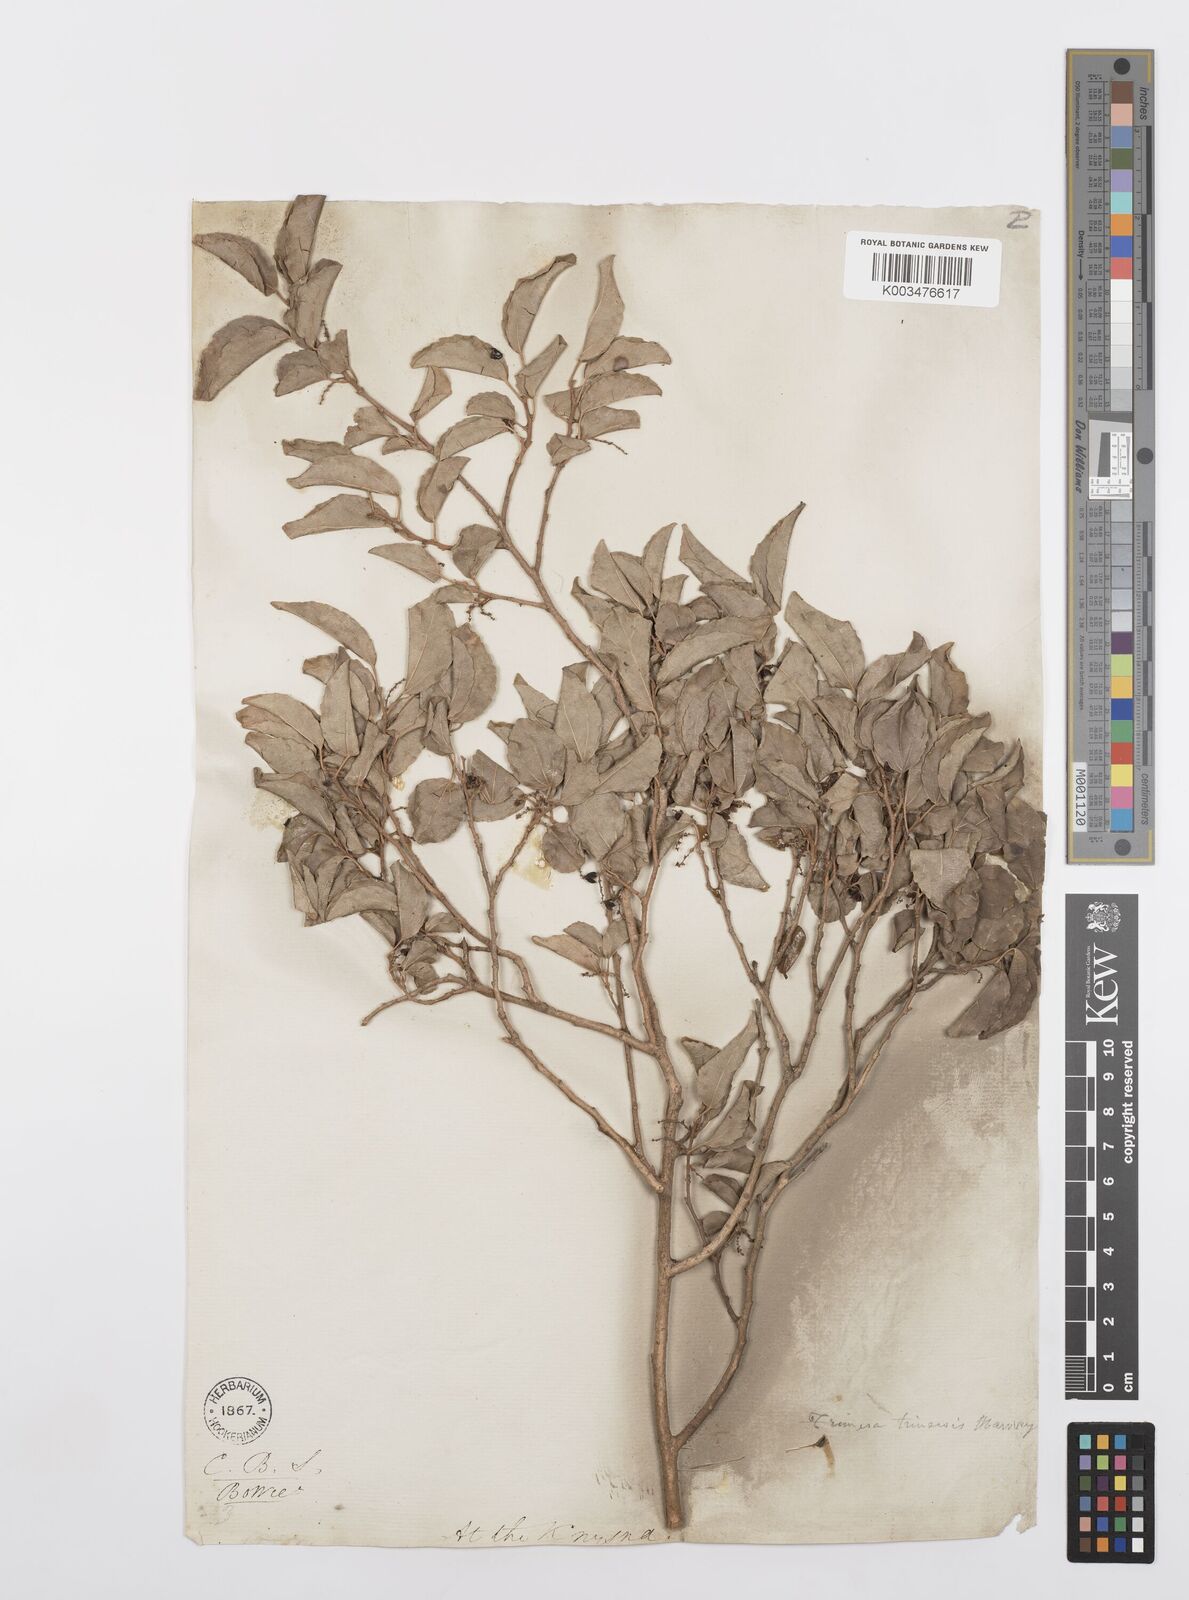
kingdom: Plantae
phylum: Tracheophyta
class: Magnoliopsida
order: Malpighiales
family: Salicaceae
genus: Trimeria
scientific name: Trimeria trinervis
